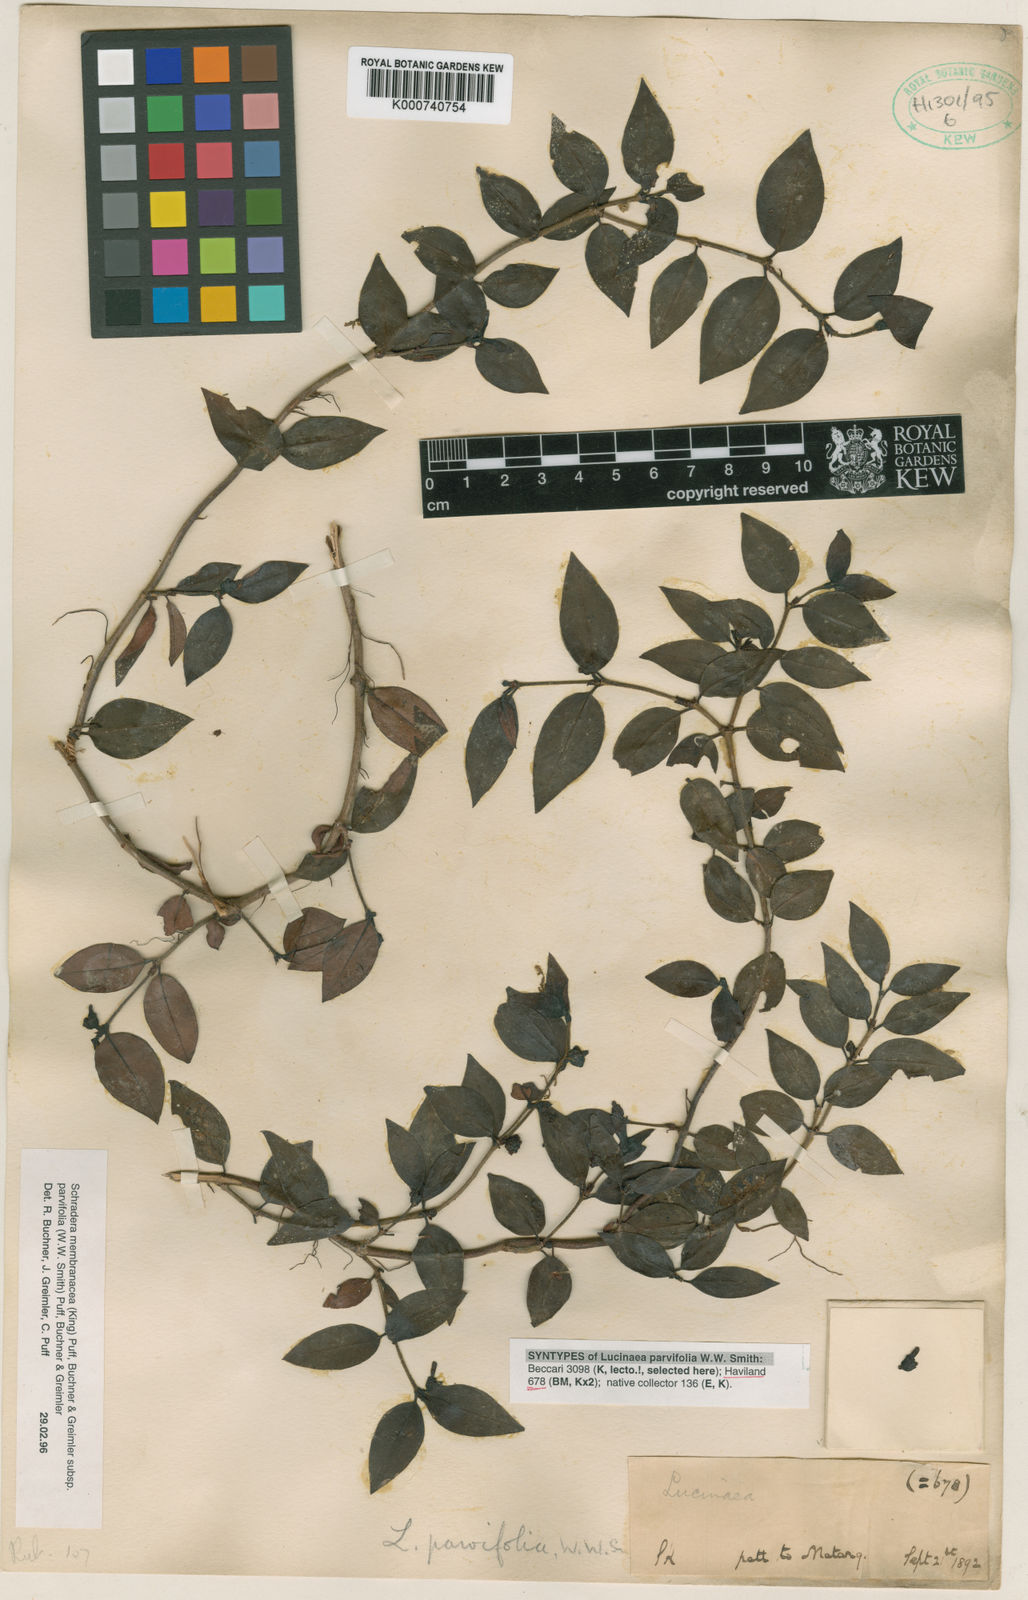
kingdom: Plantae
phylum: Tracheophyta
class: Magnoliopsida
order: Gentianales
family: Rubiaceae
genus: Schradera
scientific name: Schradera
